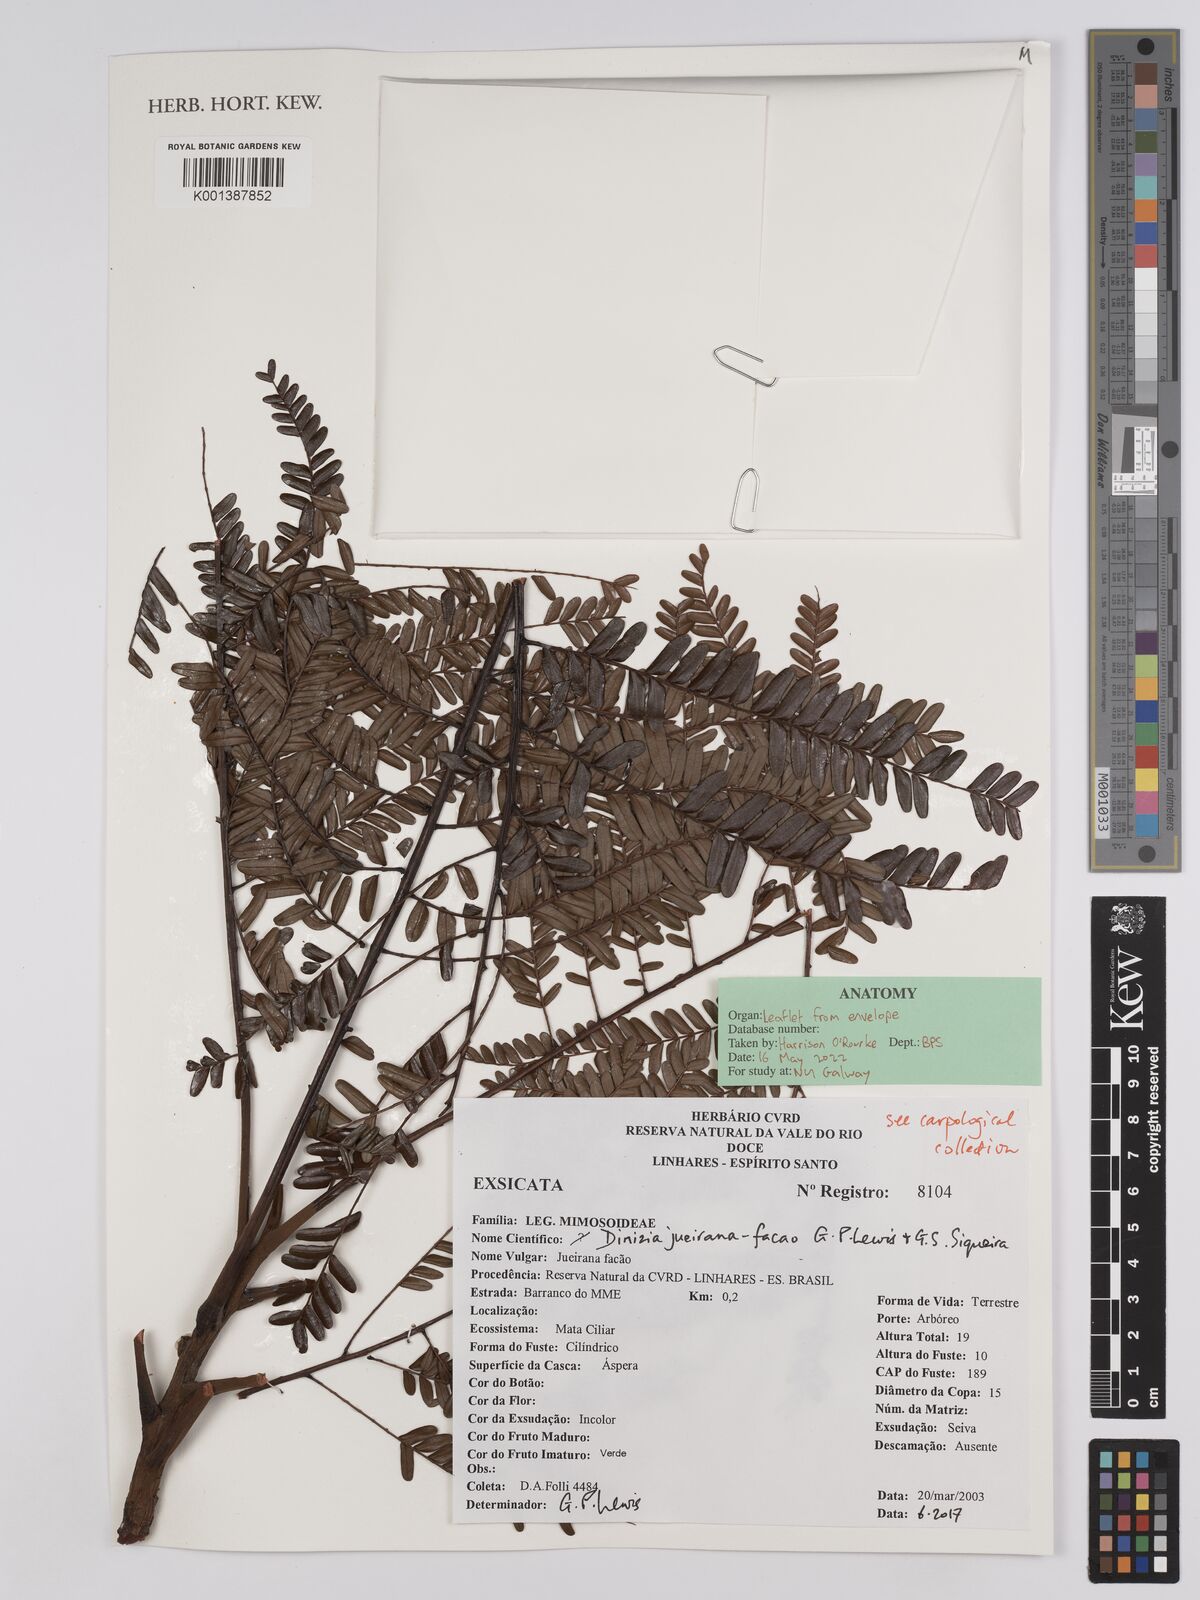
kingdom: Plantae
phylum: Tracheophyta
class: Magnoliopsida
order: Fabales
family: Fabaceae
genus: Dinizia
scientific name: Dinizia jueirana-facao
